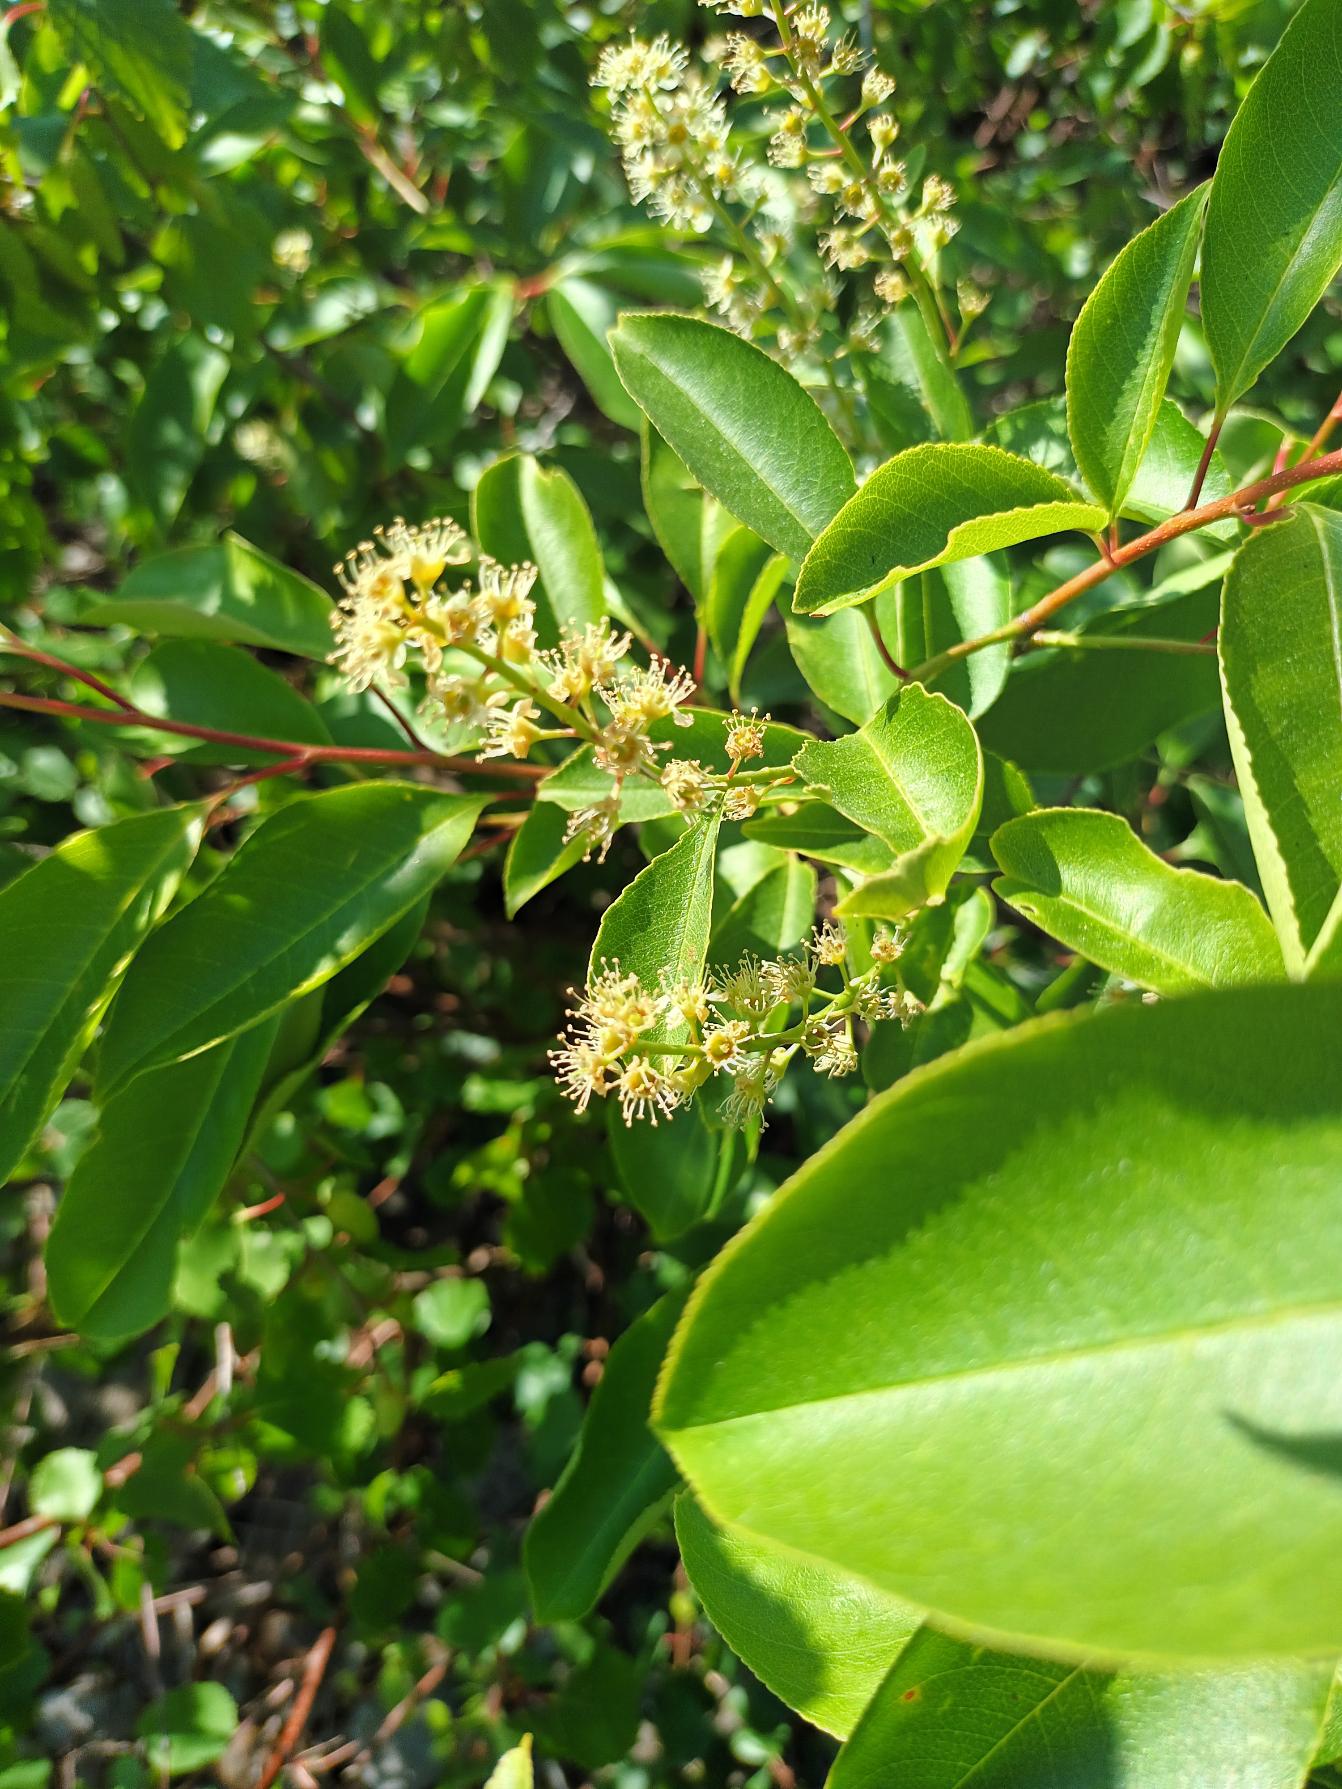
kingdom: Plantae
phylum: Tracheophyta
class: Magnoliopsida
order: Rosales
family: Rosaceae
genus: Prunus
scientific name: Prunus serotina
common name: Glansbladet hæg
